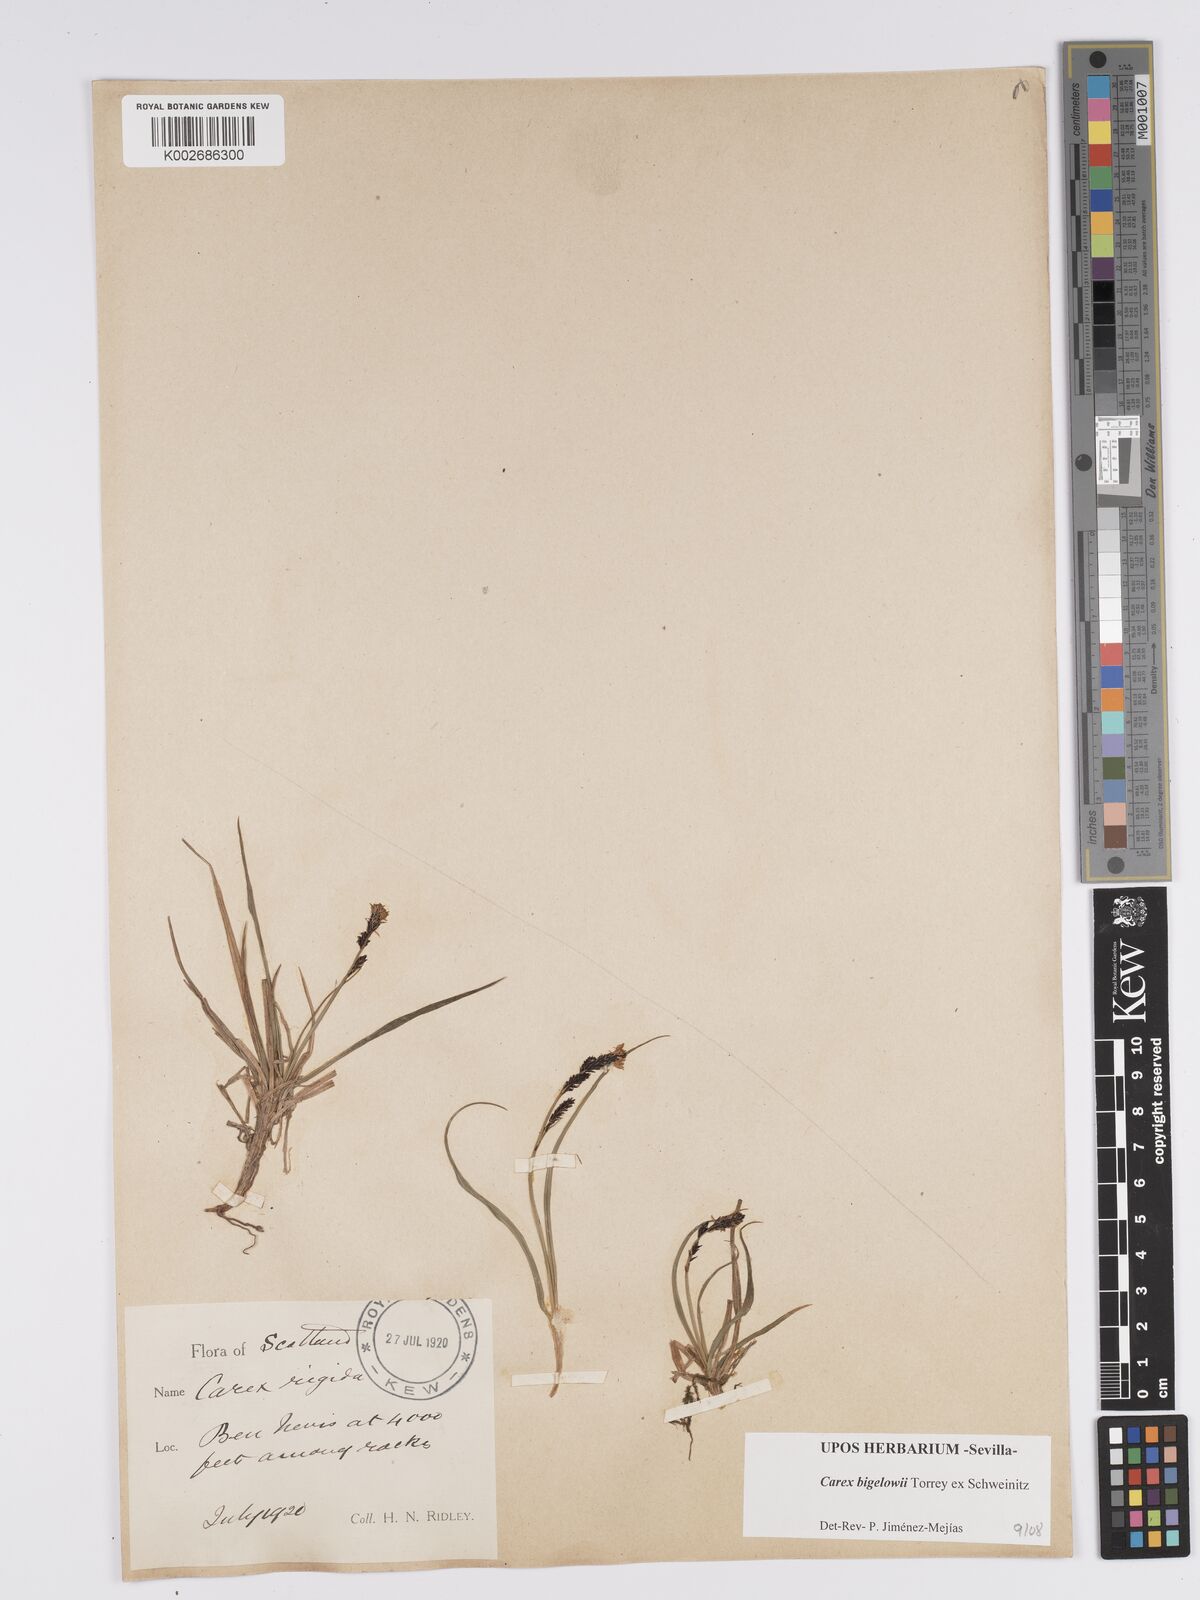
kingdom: Plantae
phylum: Tracheophyta
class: Liliopsida
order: Poales
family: Cyperaceae
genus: Carex
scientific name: Carex bigelowii
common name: Stiff sedge
